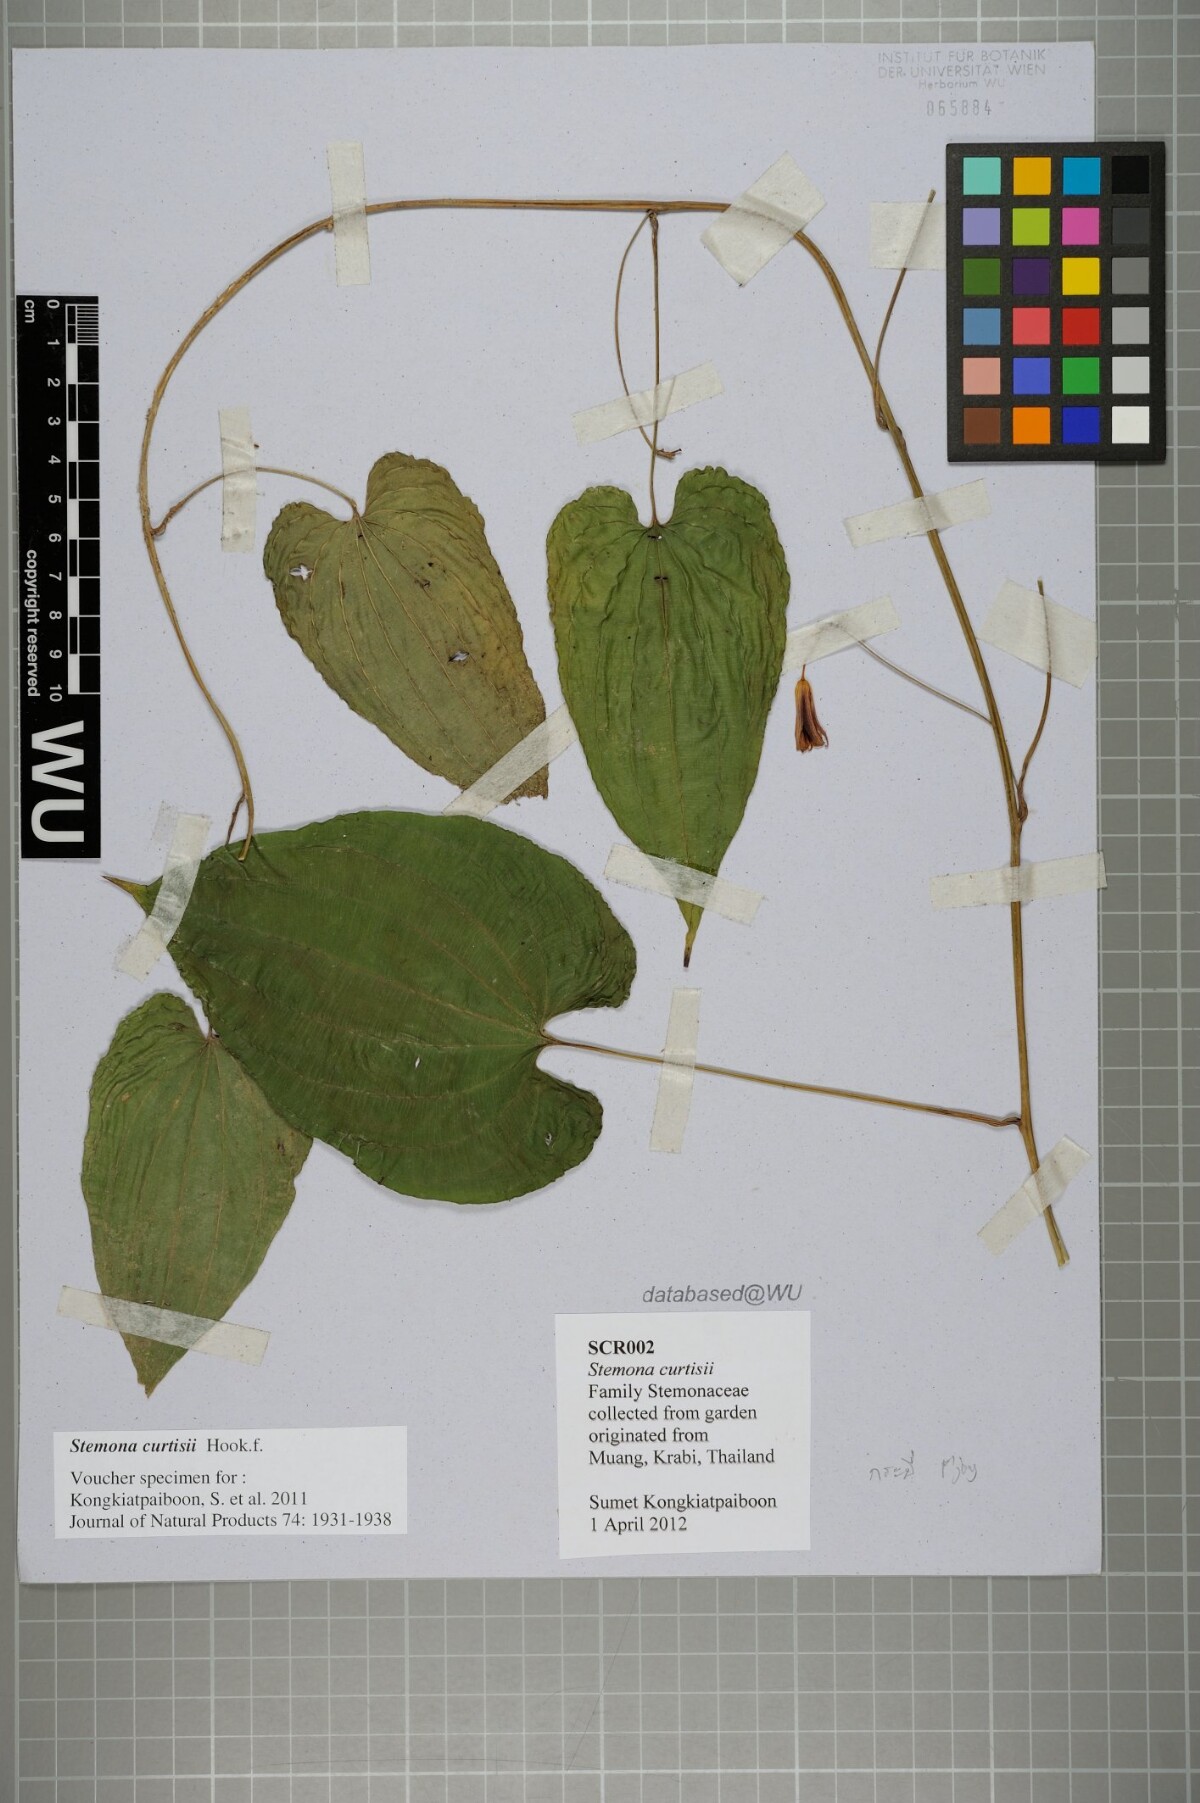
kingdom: Plantae
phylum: Tracheophyta
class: Liliopsida
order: Pandanales
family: Stemonaceae
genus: Stemona
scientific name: Stemona curtisii
